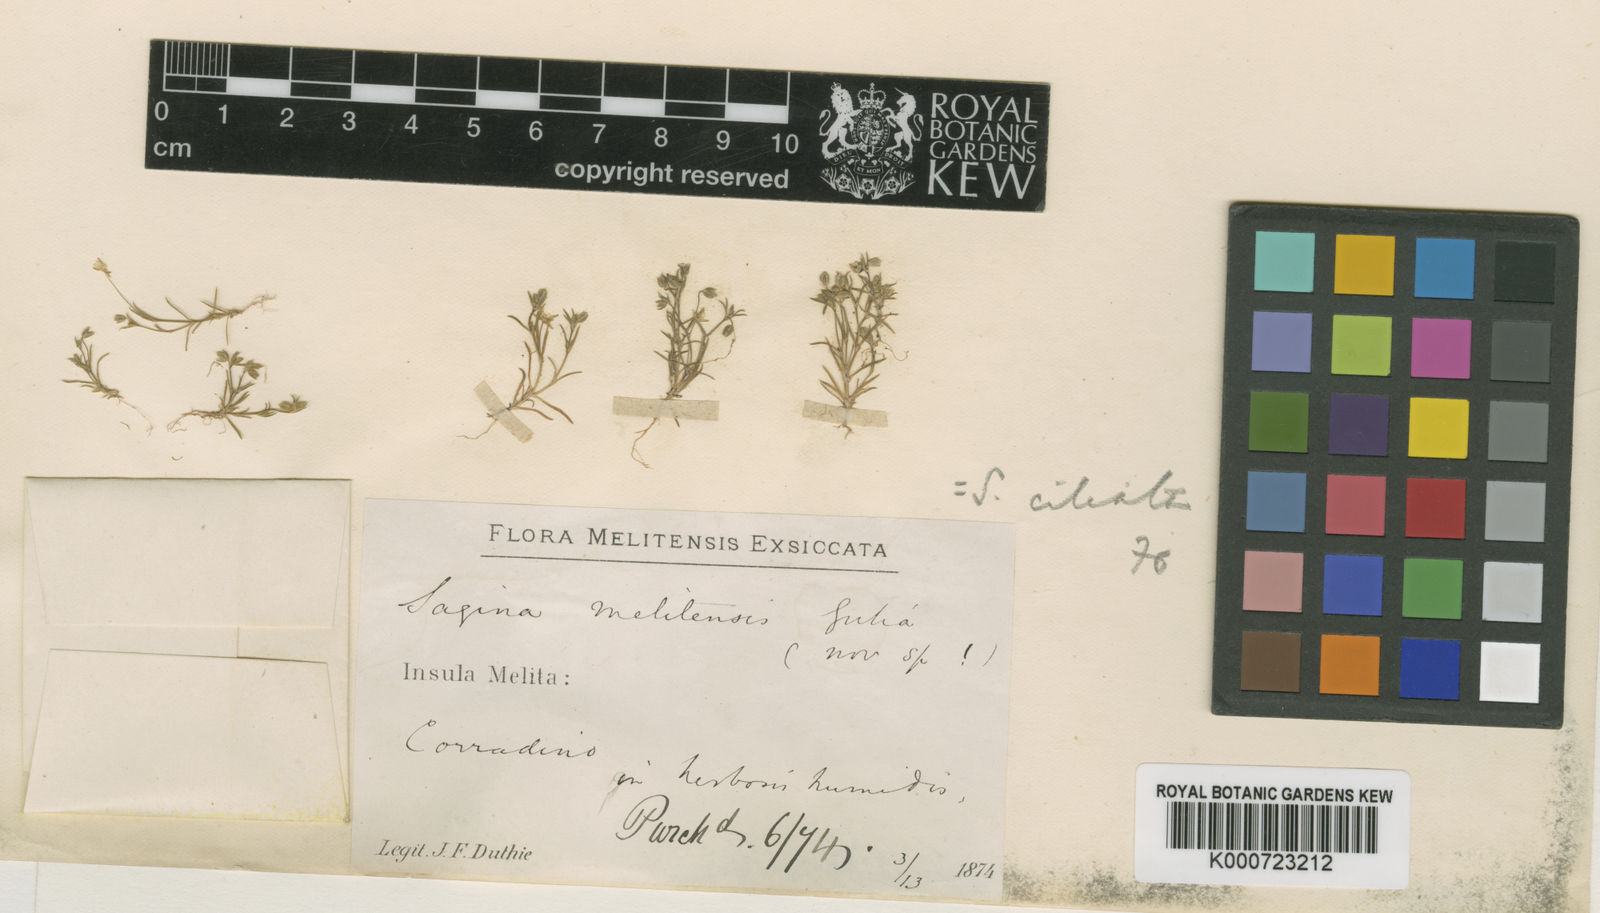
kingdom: Plantae
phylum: Tracheophyta
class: Magnoliopsida
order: Caryophyllales
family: Caryophyllaceae
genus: Sagina
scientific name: Sagina apetala
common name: Annual pearlwort
